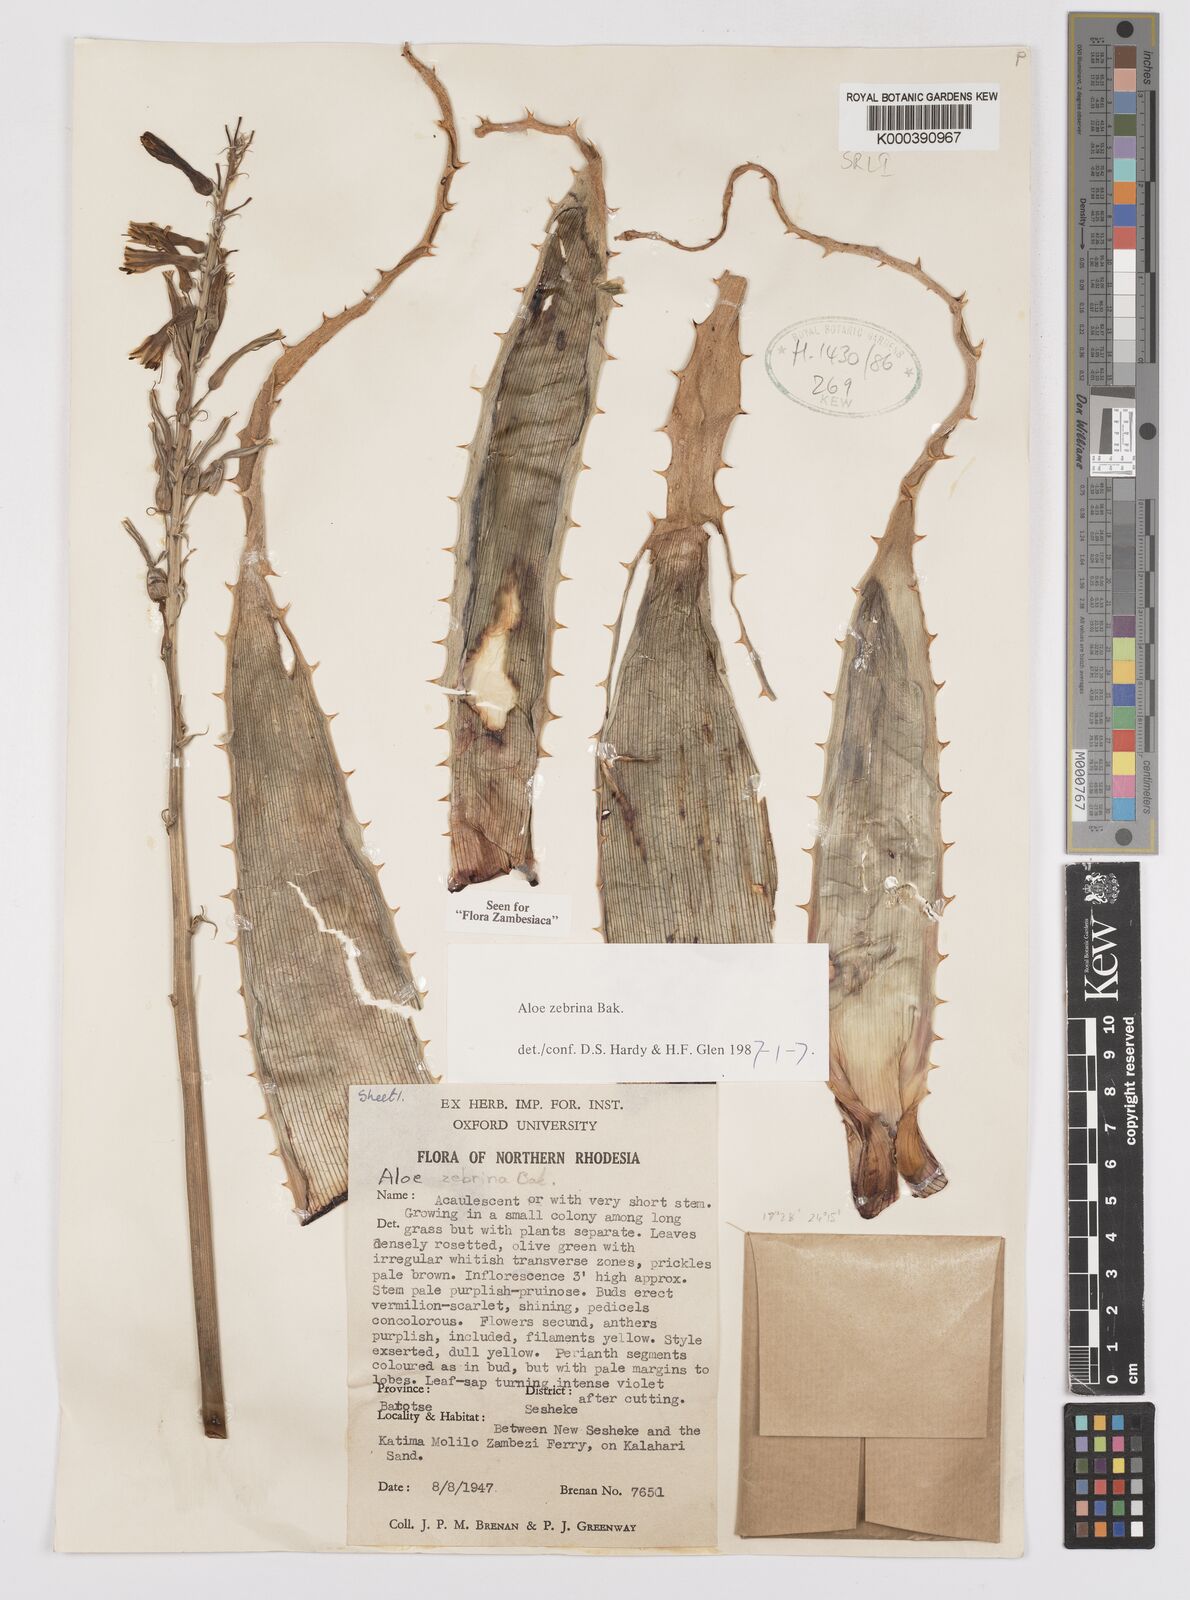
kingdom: Plantae
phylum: Tracheophyta
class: Liliopsida
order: Asparagales
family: Asphodelaceae
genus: Aloe
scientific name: Aloe zebrina
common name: Zebra-leaf aloe
